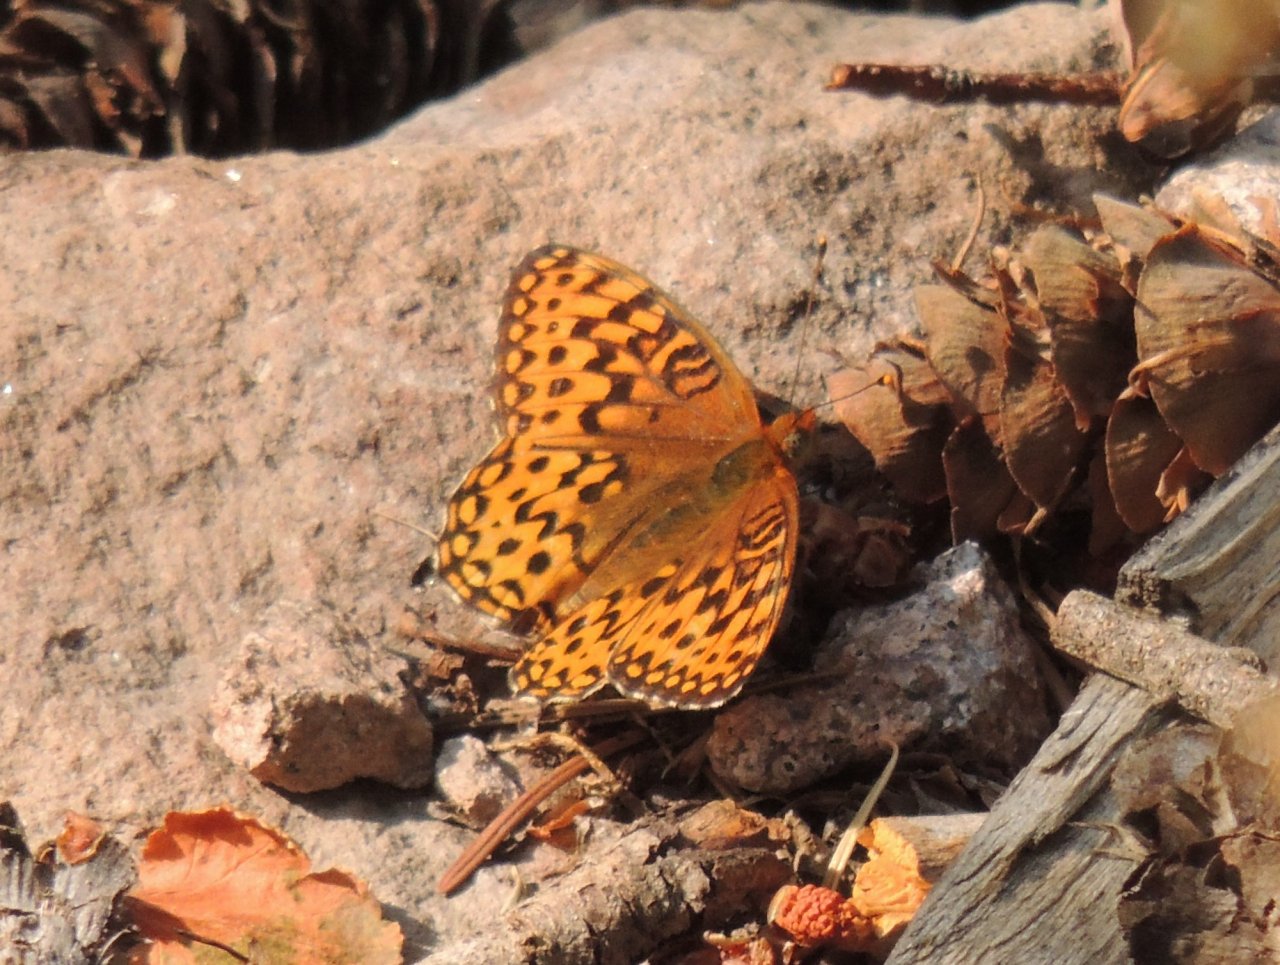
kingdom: Animalia
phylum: Arthropoda
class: Insecta
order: Lepidoptera
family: Nymphalidae
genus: Speyeria
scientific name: Speyeria zerene
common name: Zerene Fritillary
